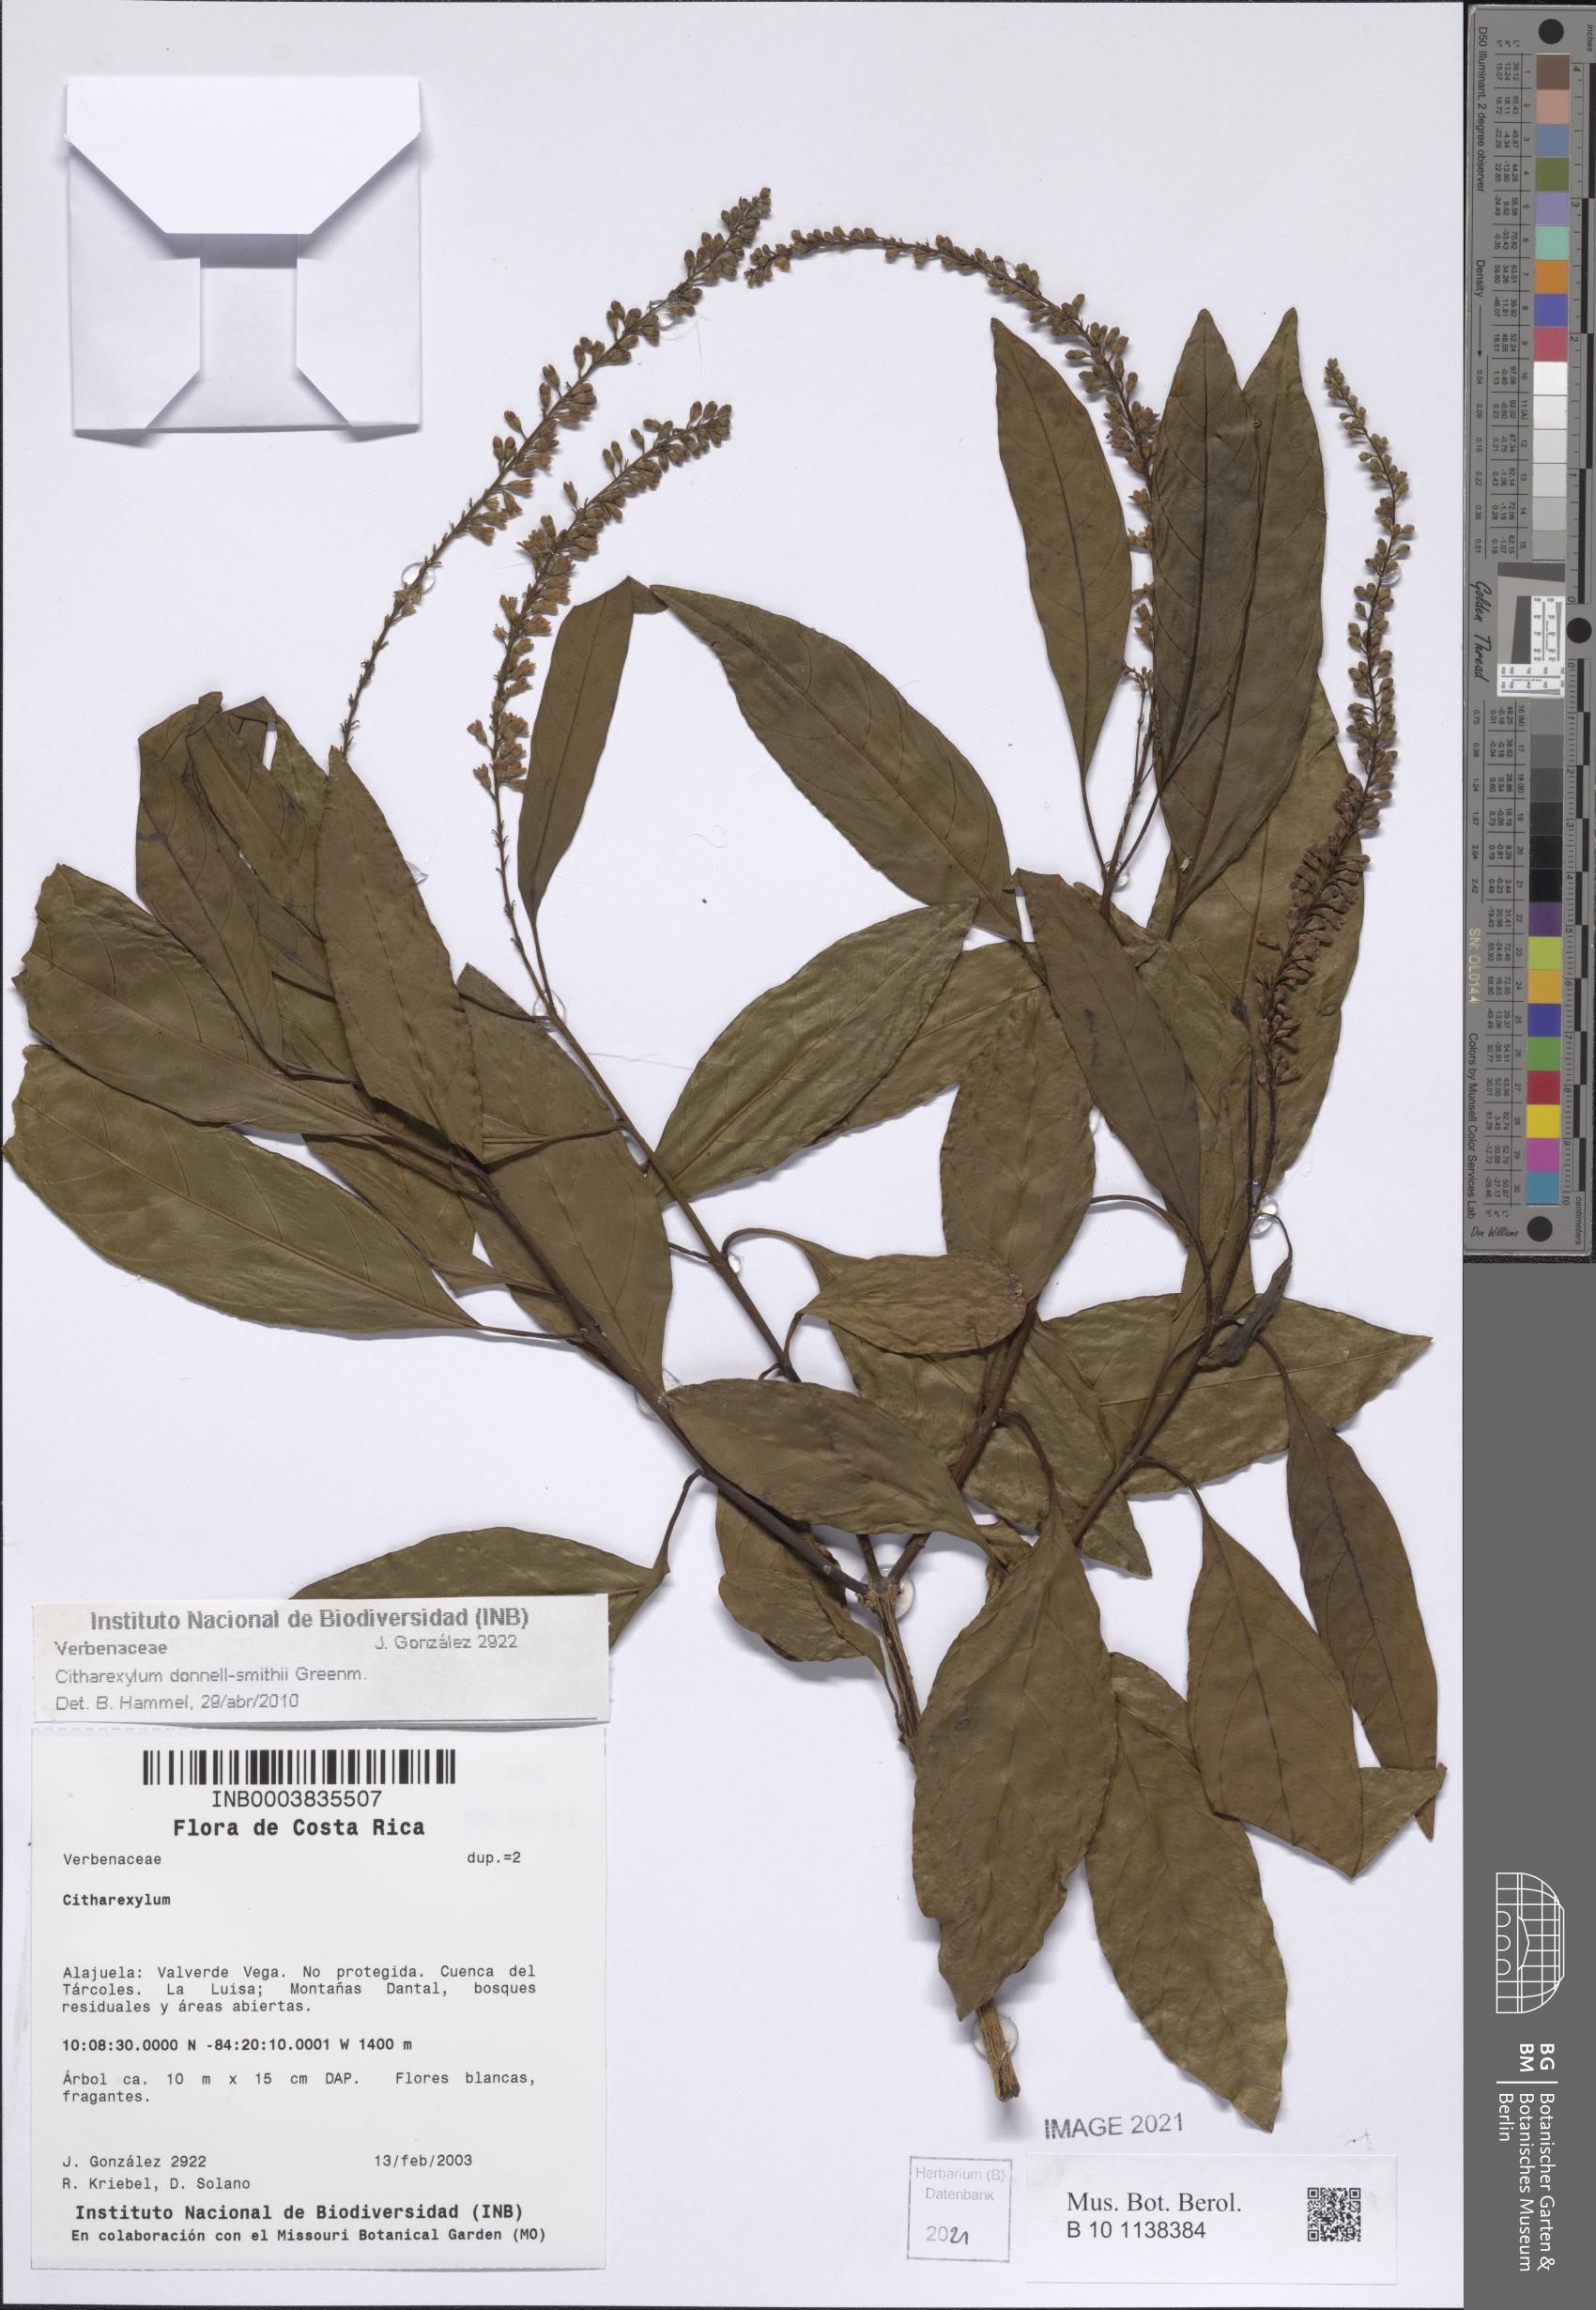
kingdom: Plantae
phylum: Tracheophyta
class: Magnoliopsida
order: Lamiales
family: Verbenaceae
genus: Citharexylum
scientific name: Citharexylum donnell-smithii
